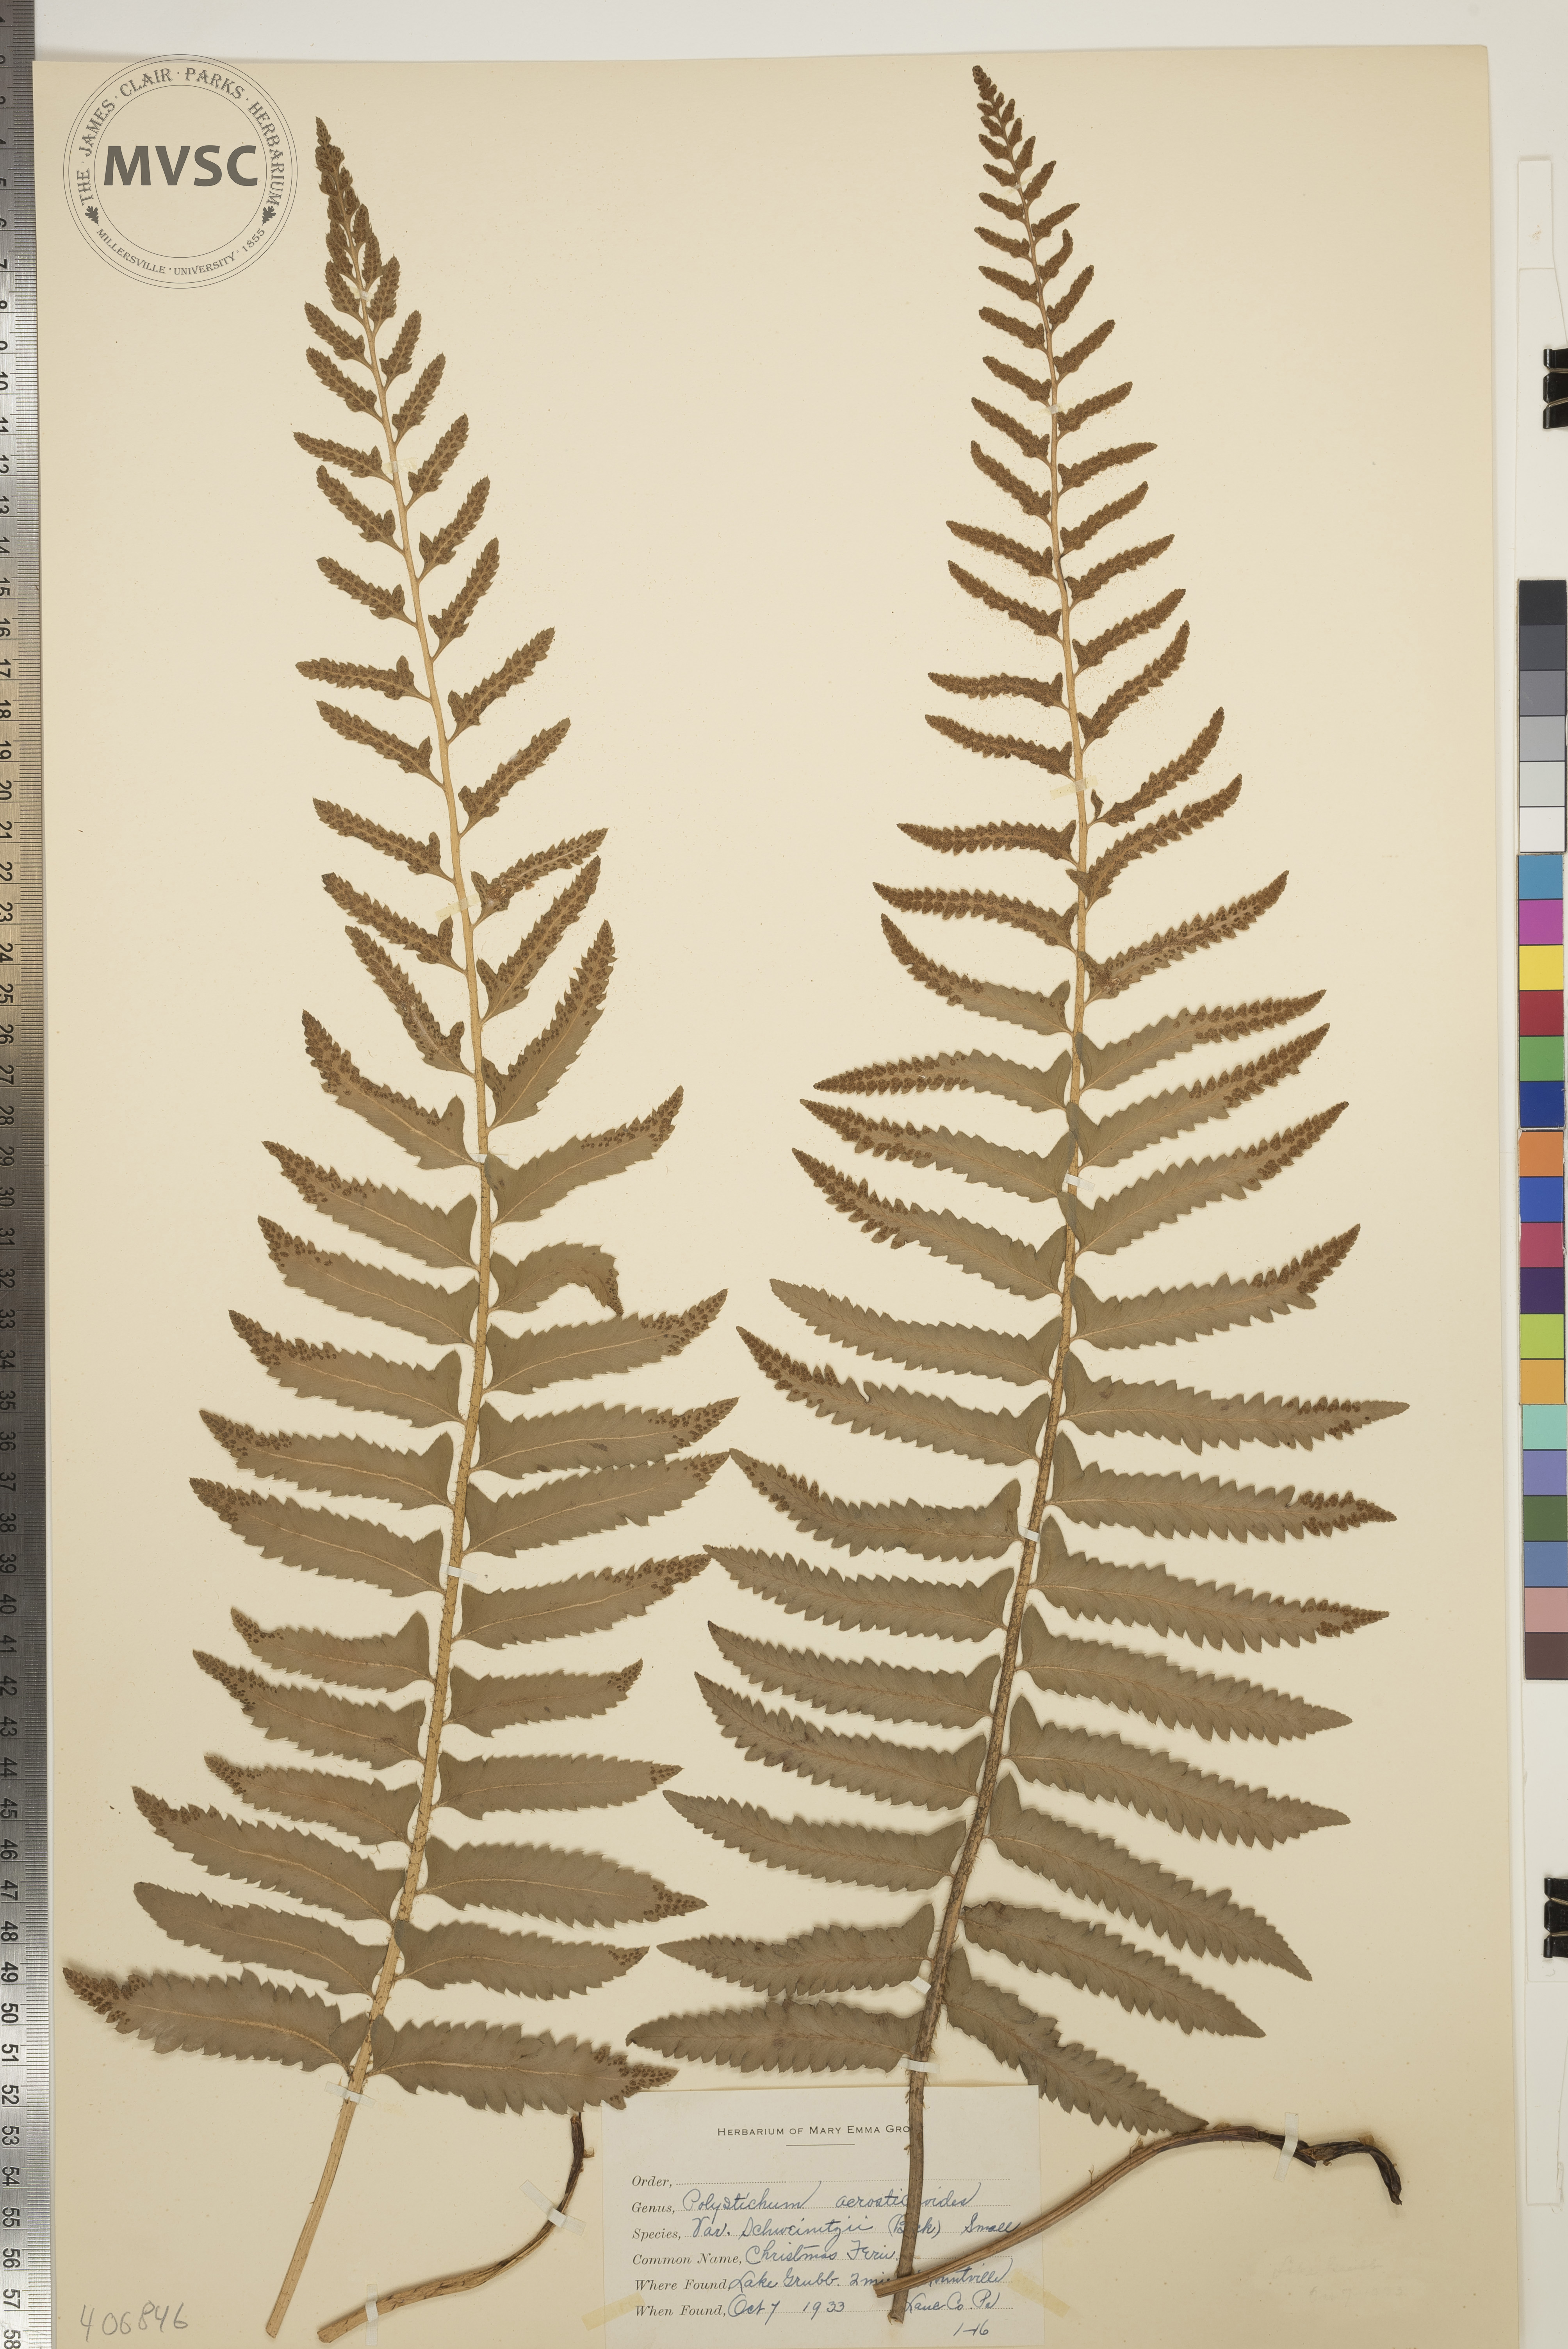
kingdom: Plantae
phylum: Tracheophyta
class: Polypodiopsida
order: Polypodiales
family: Dryopteridaceae
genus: Polystichum
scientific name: Polystichum acrostichoides
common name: Christmas Fern
